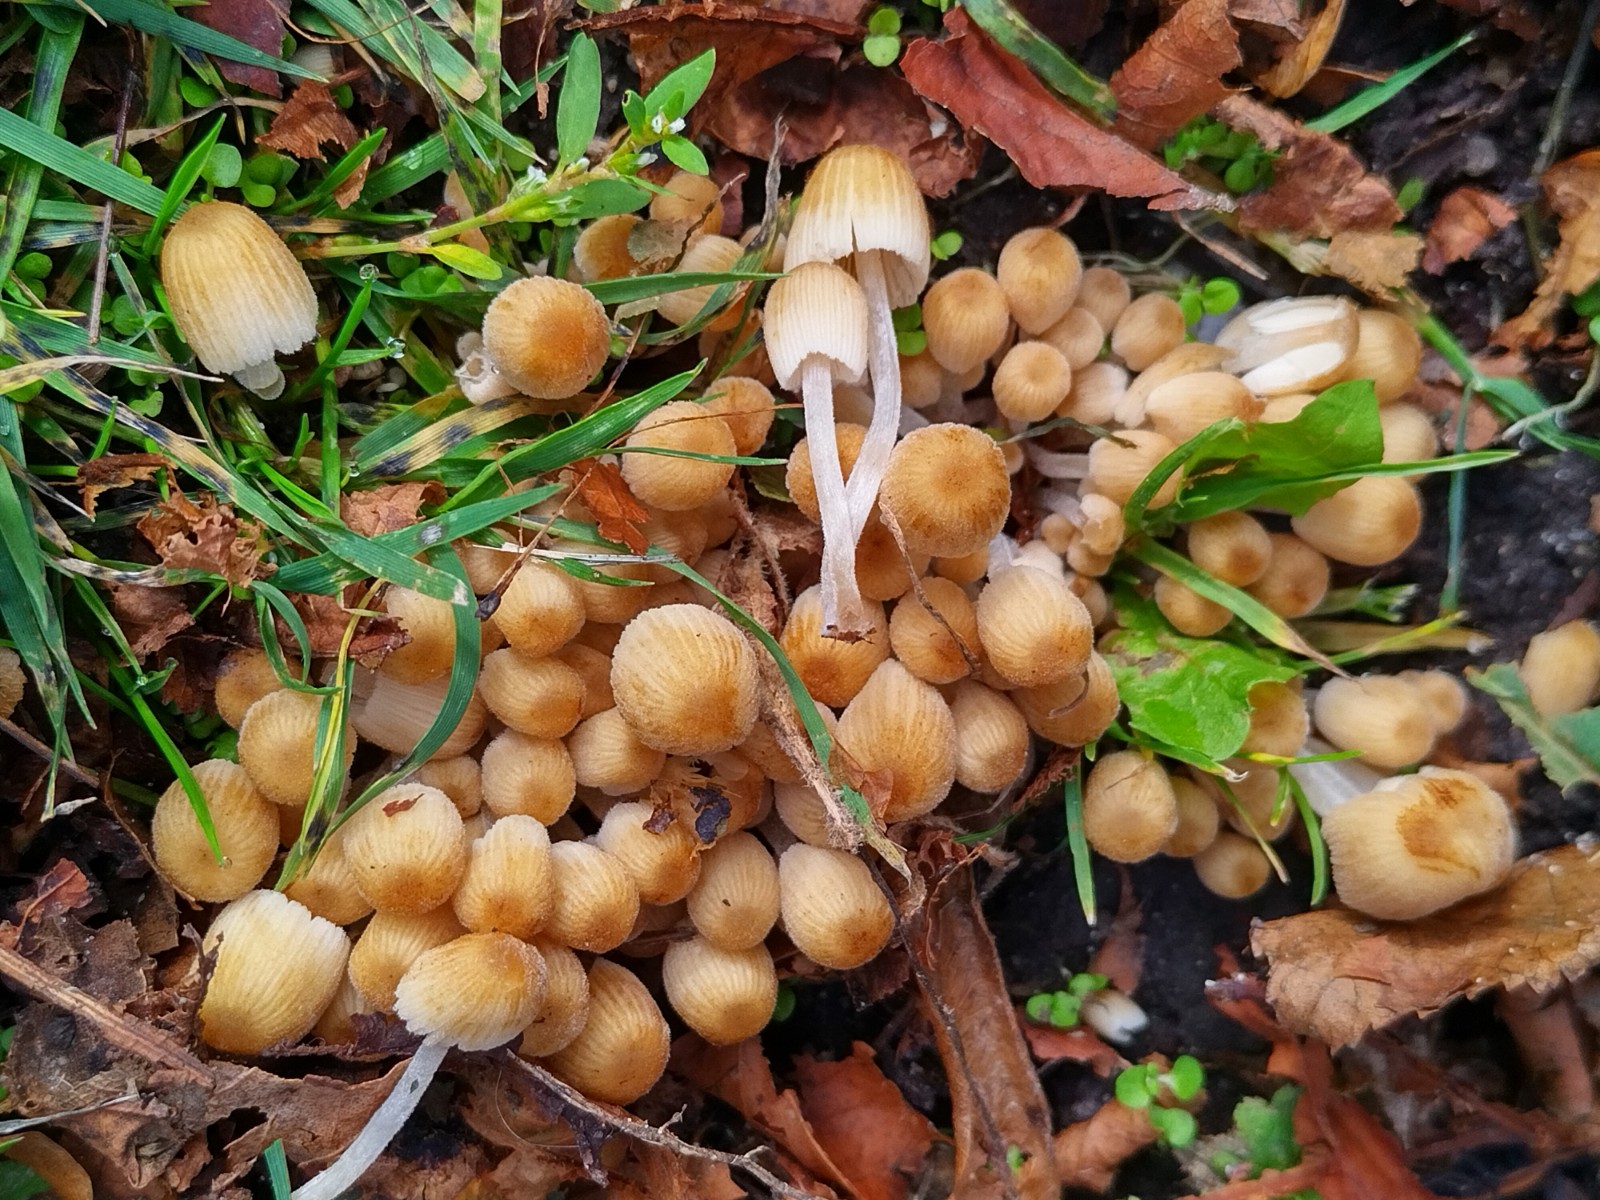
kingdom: Fungi
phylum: Basidiomycota
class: Agaricomycetes
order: Agaricales
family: Psathyrellaceae
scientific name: Psathyrellaceae
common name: mørkhatfamilien
